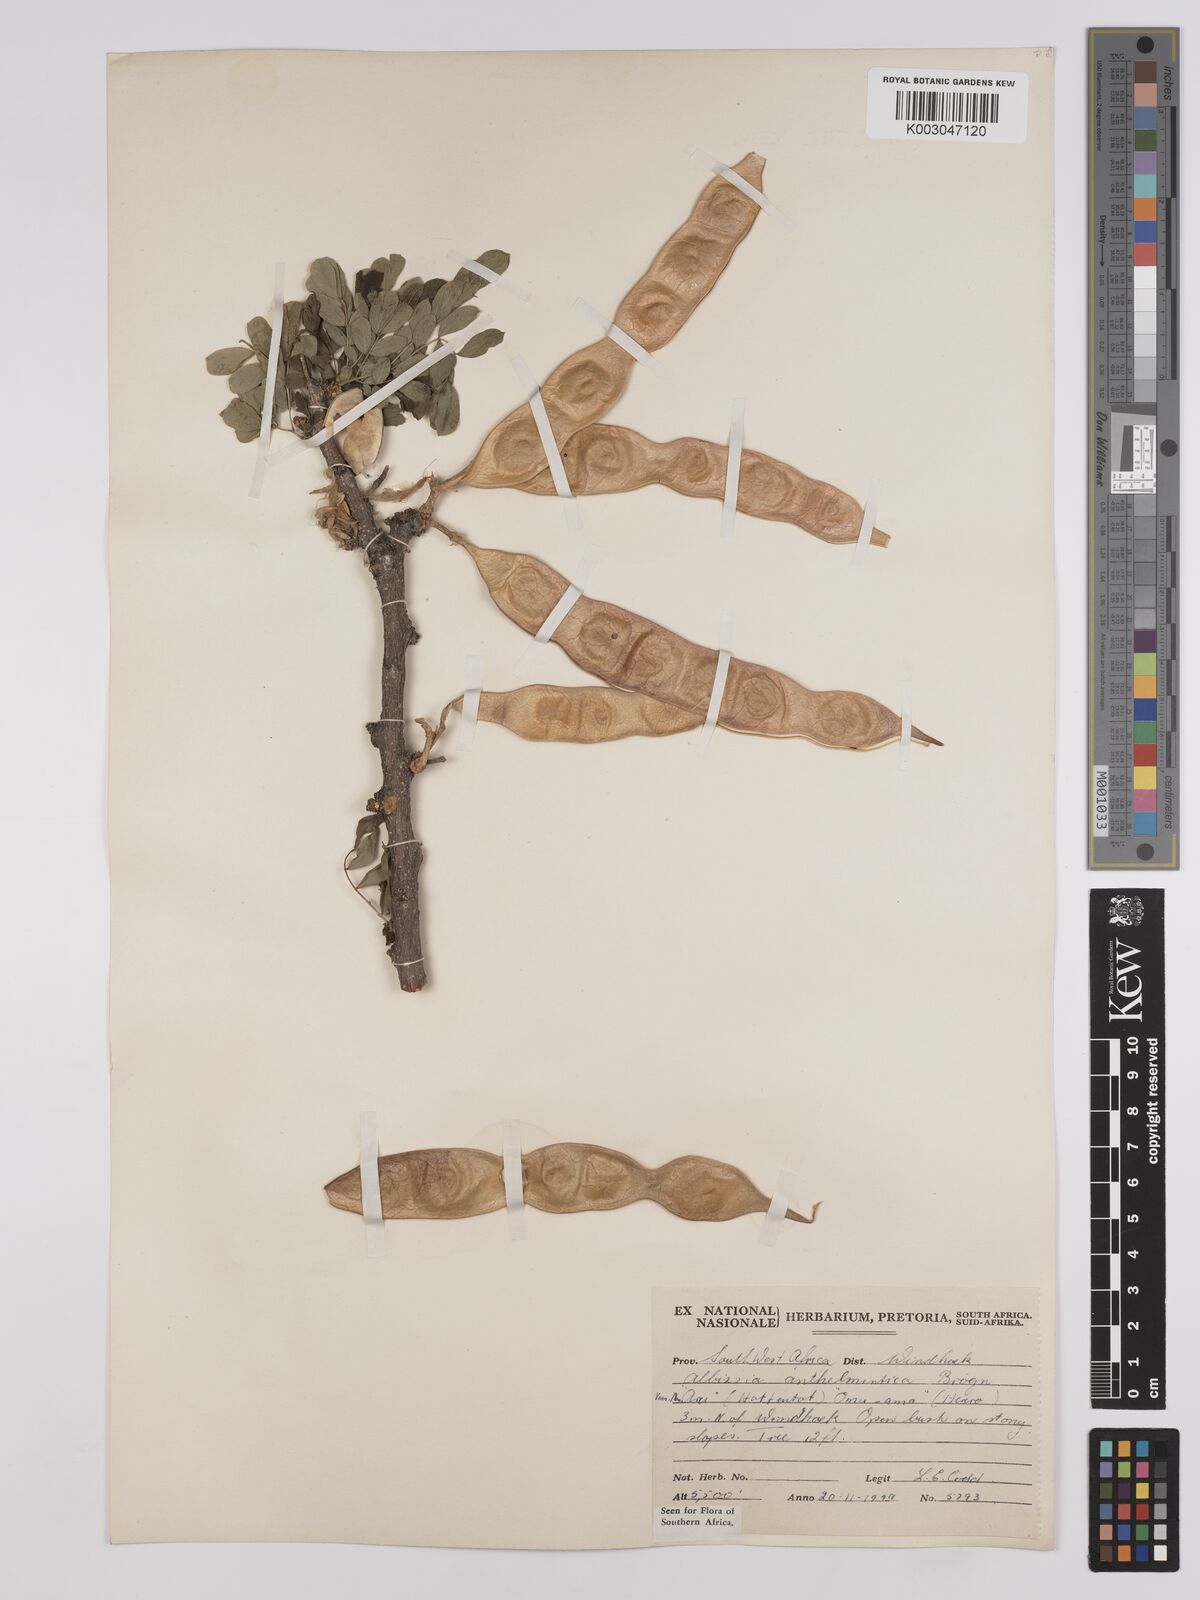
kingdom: Plantae
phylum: Tracheophyta
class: Magnoliopsida
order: Fabales
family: Fabaceae
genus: Albizia
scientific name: Albizia anthelmintica
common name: Worm-bark false-thorn
